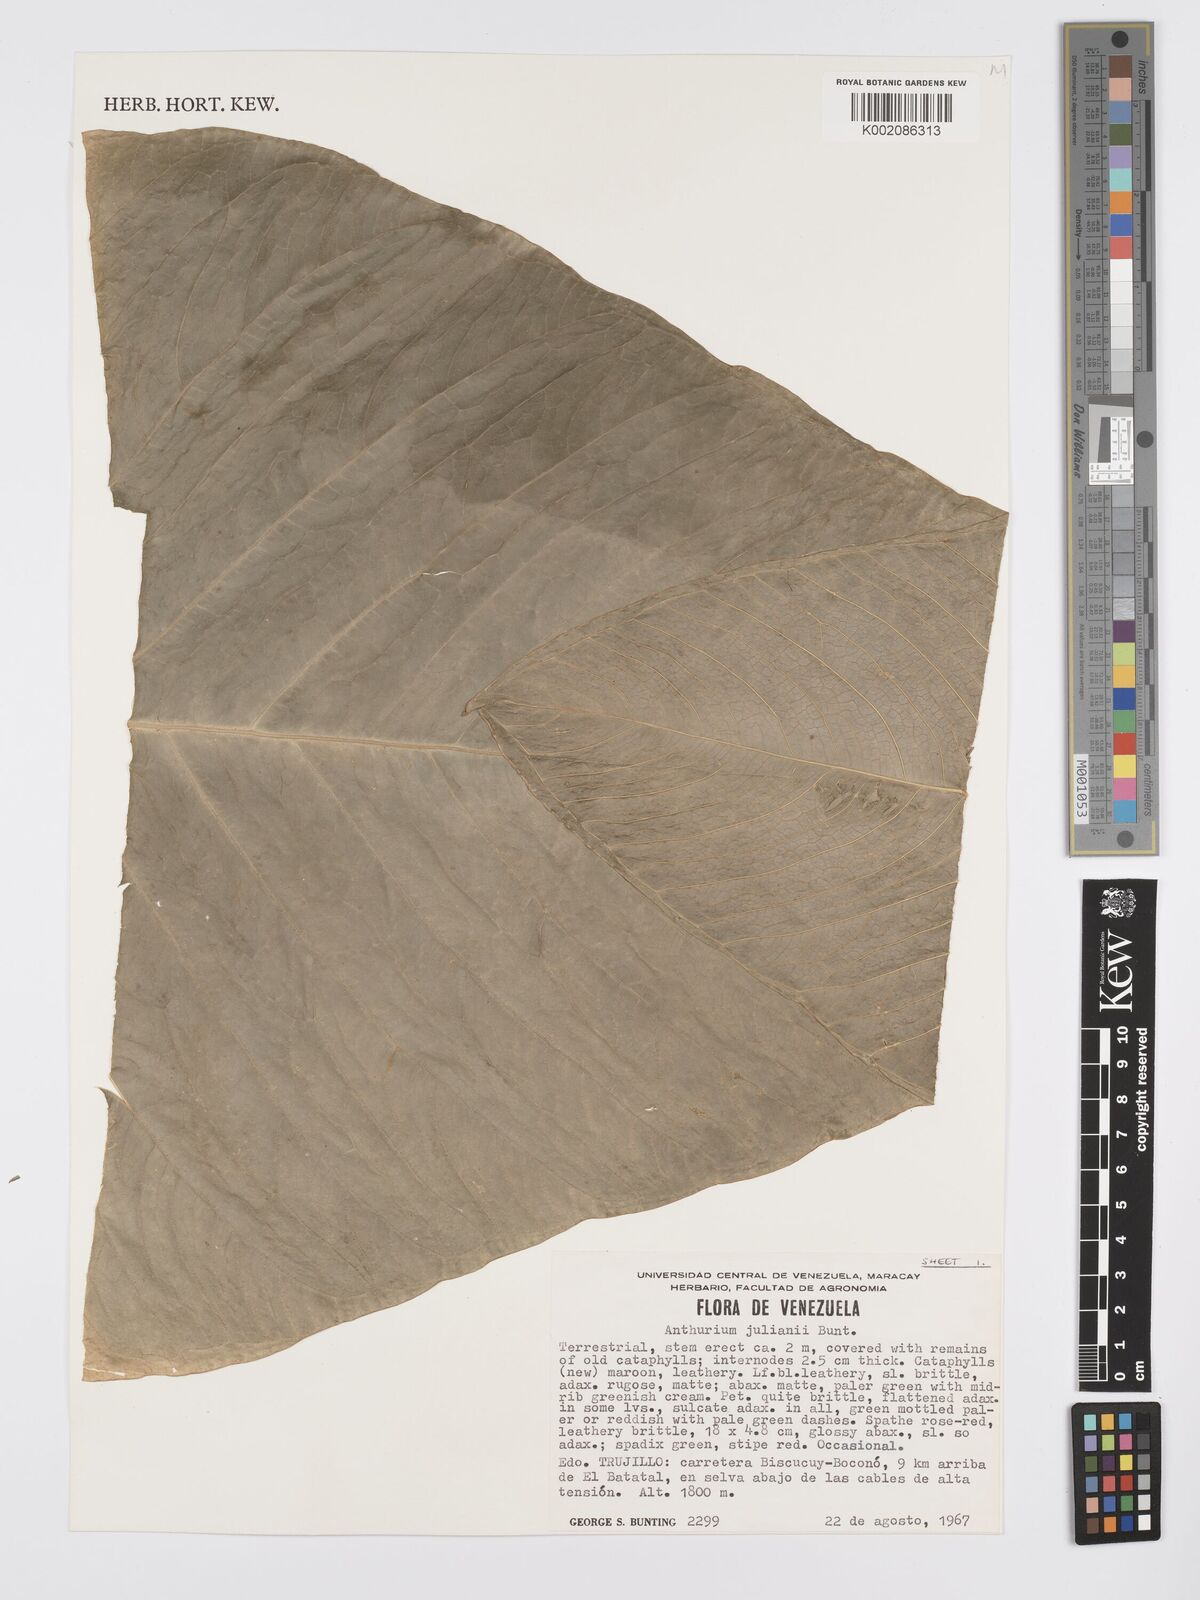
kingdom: Plantae
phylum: Tracheophyta
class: Liliopsida
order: Alismatales
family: Araceae
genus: Anthurium
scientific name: Anthurium julianii
